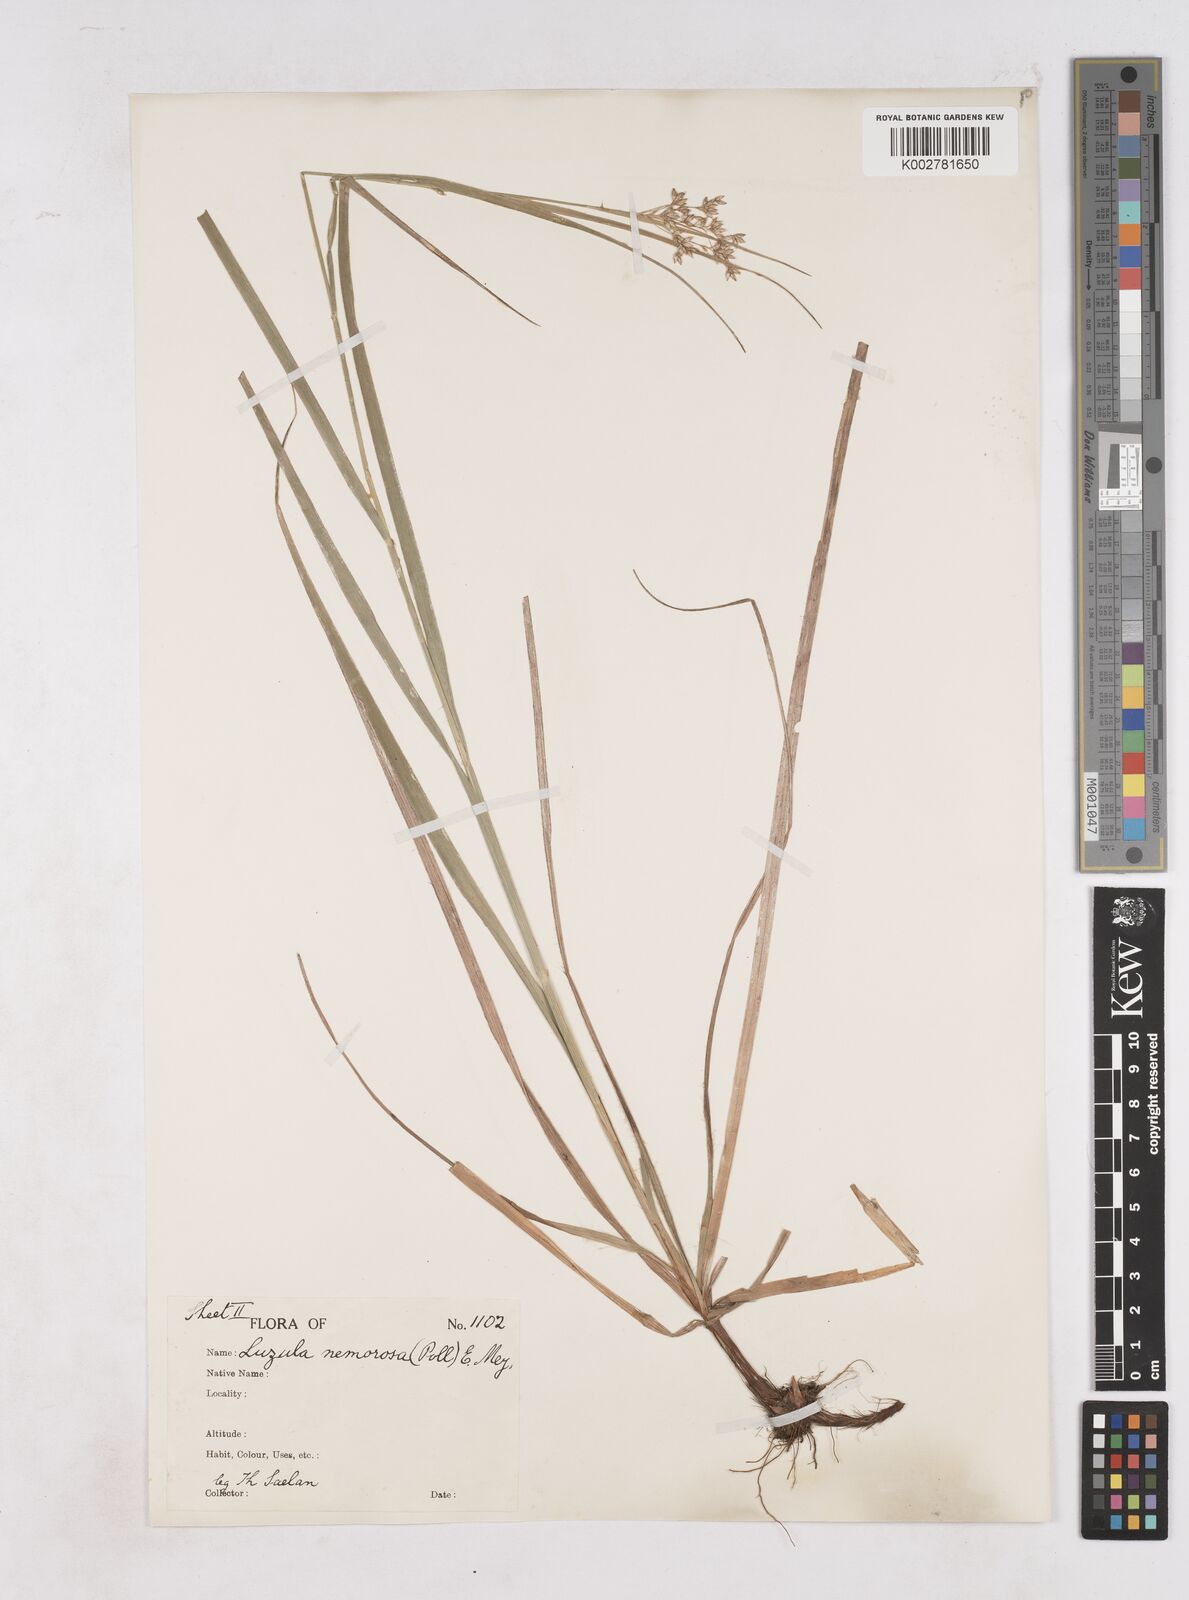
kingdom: Plantae
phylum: Tracheophyta
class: Liliopsida
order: Poales
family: Juncaceae
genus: Luzula
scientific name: Luzula luzuloides
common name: White wood-rush
